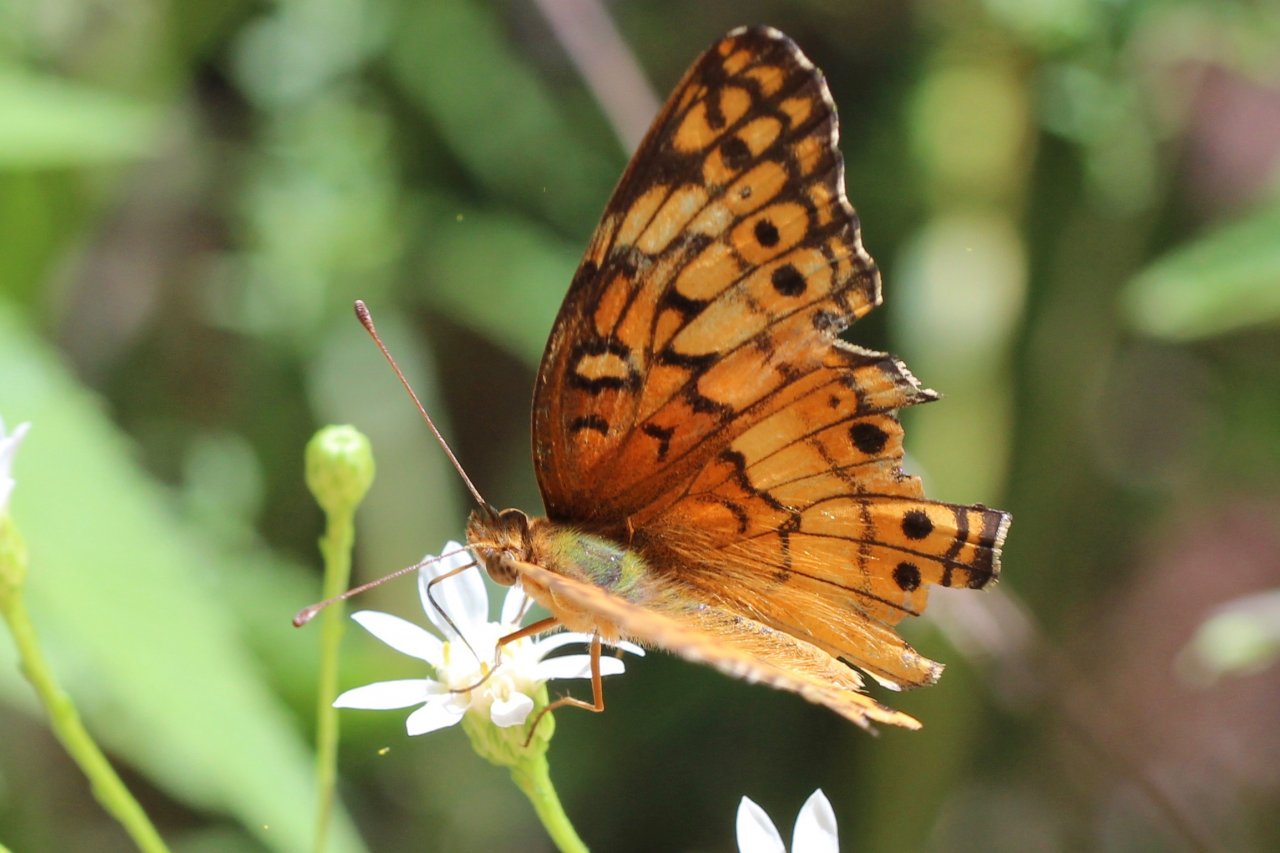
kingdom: Animalia
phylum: Arthropoda
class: Insecta
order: Lepidoptera
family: Nymphalidae
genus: Euptoieta
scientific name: Euptoieta claudia
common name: Variegated Fritillary
